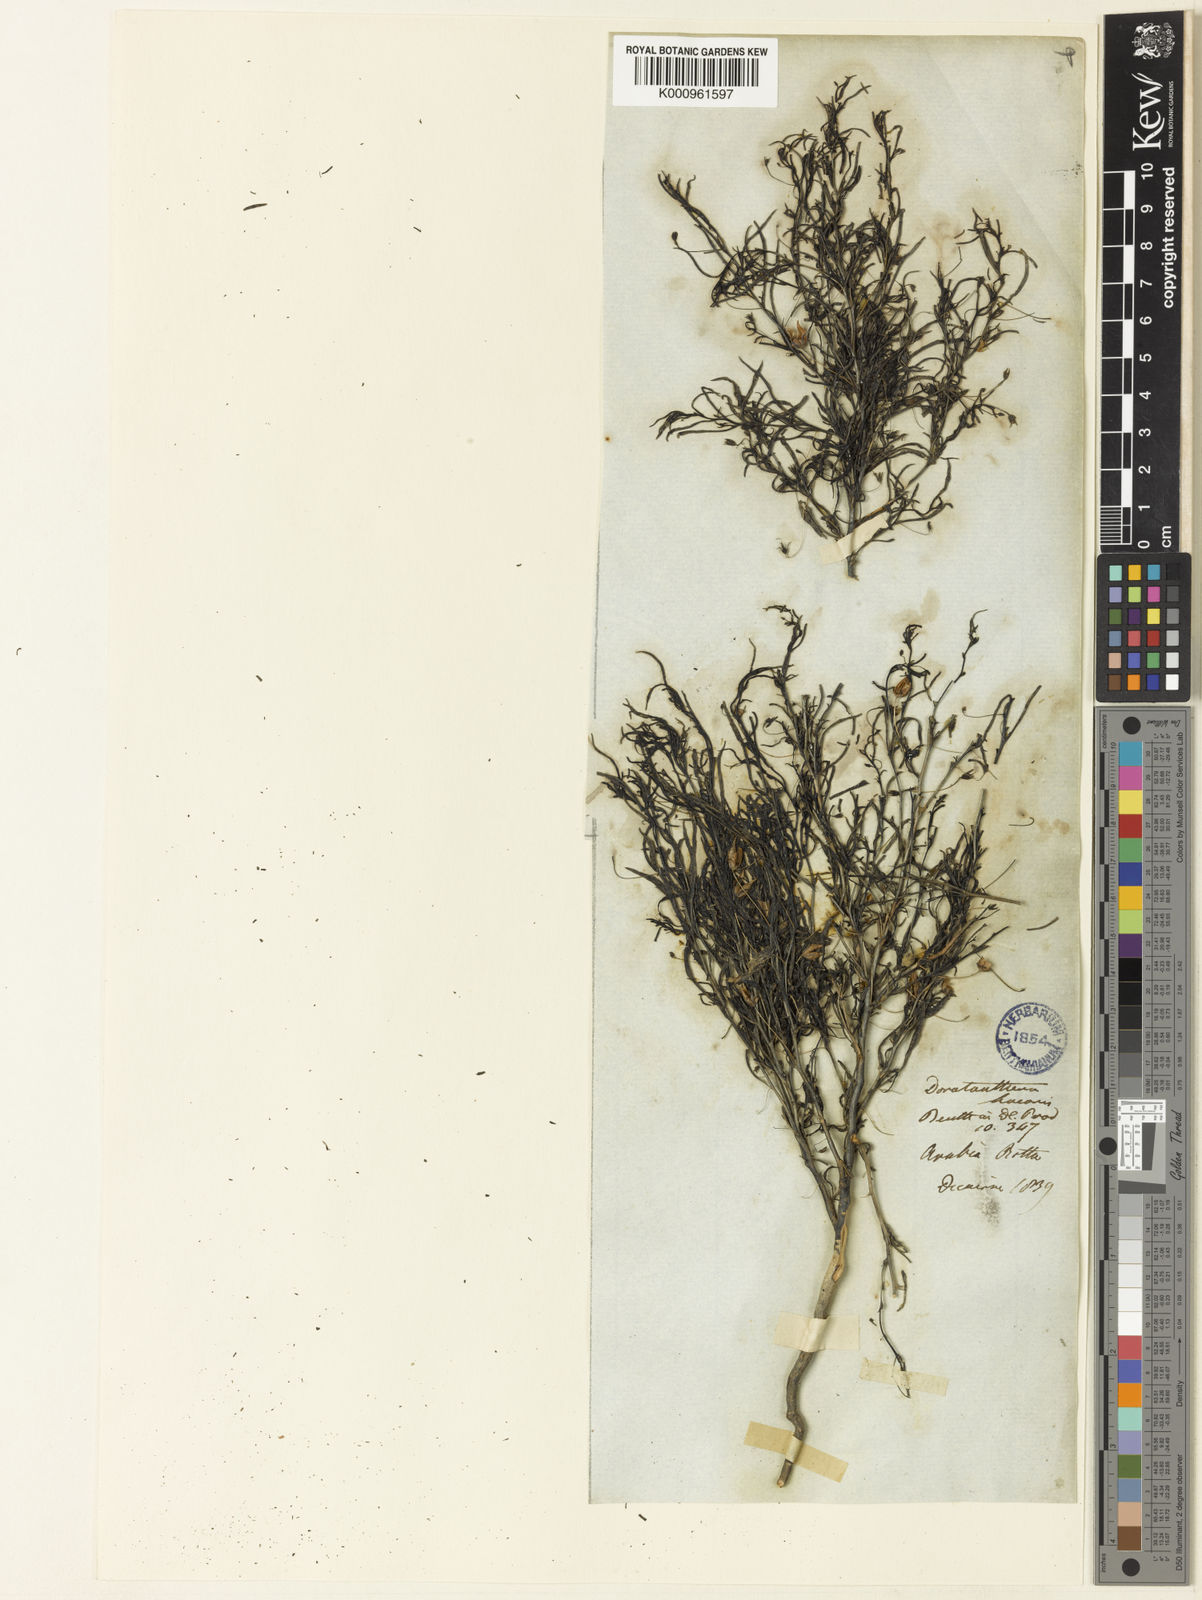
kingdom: Plantae
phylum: Tracheophyta
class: Magnoliopsida
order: Lamiales
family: Scrophulariaceae
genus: Anticharis
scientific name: Anticharis senegalensis
